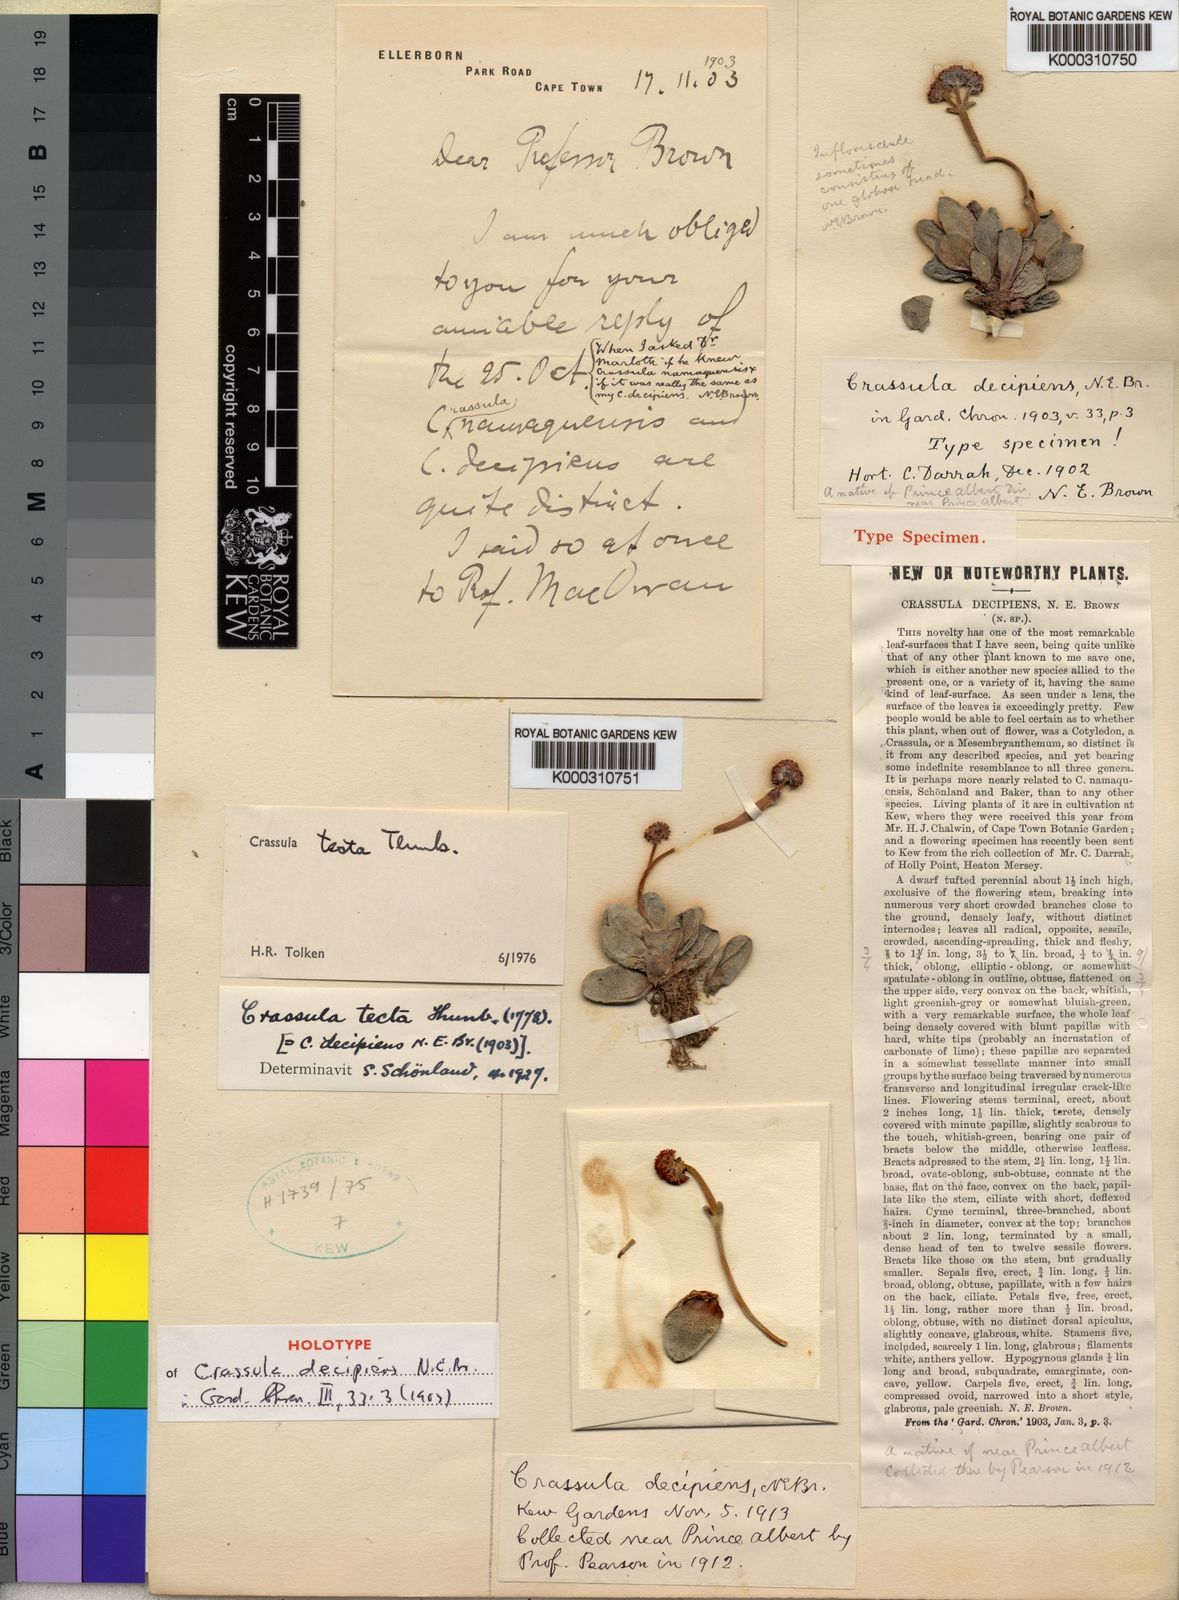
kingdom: Plantae
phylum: Tracheophyta
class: Magnoliopsida
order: Saxifragales
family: Crassulaceae
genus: Crassula
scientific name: Crassula tecta
